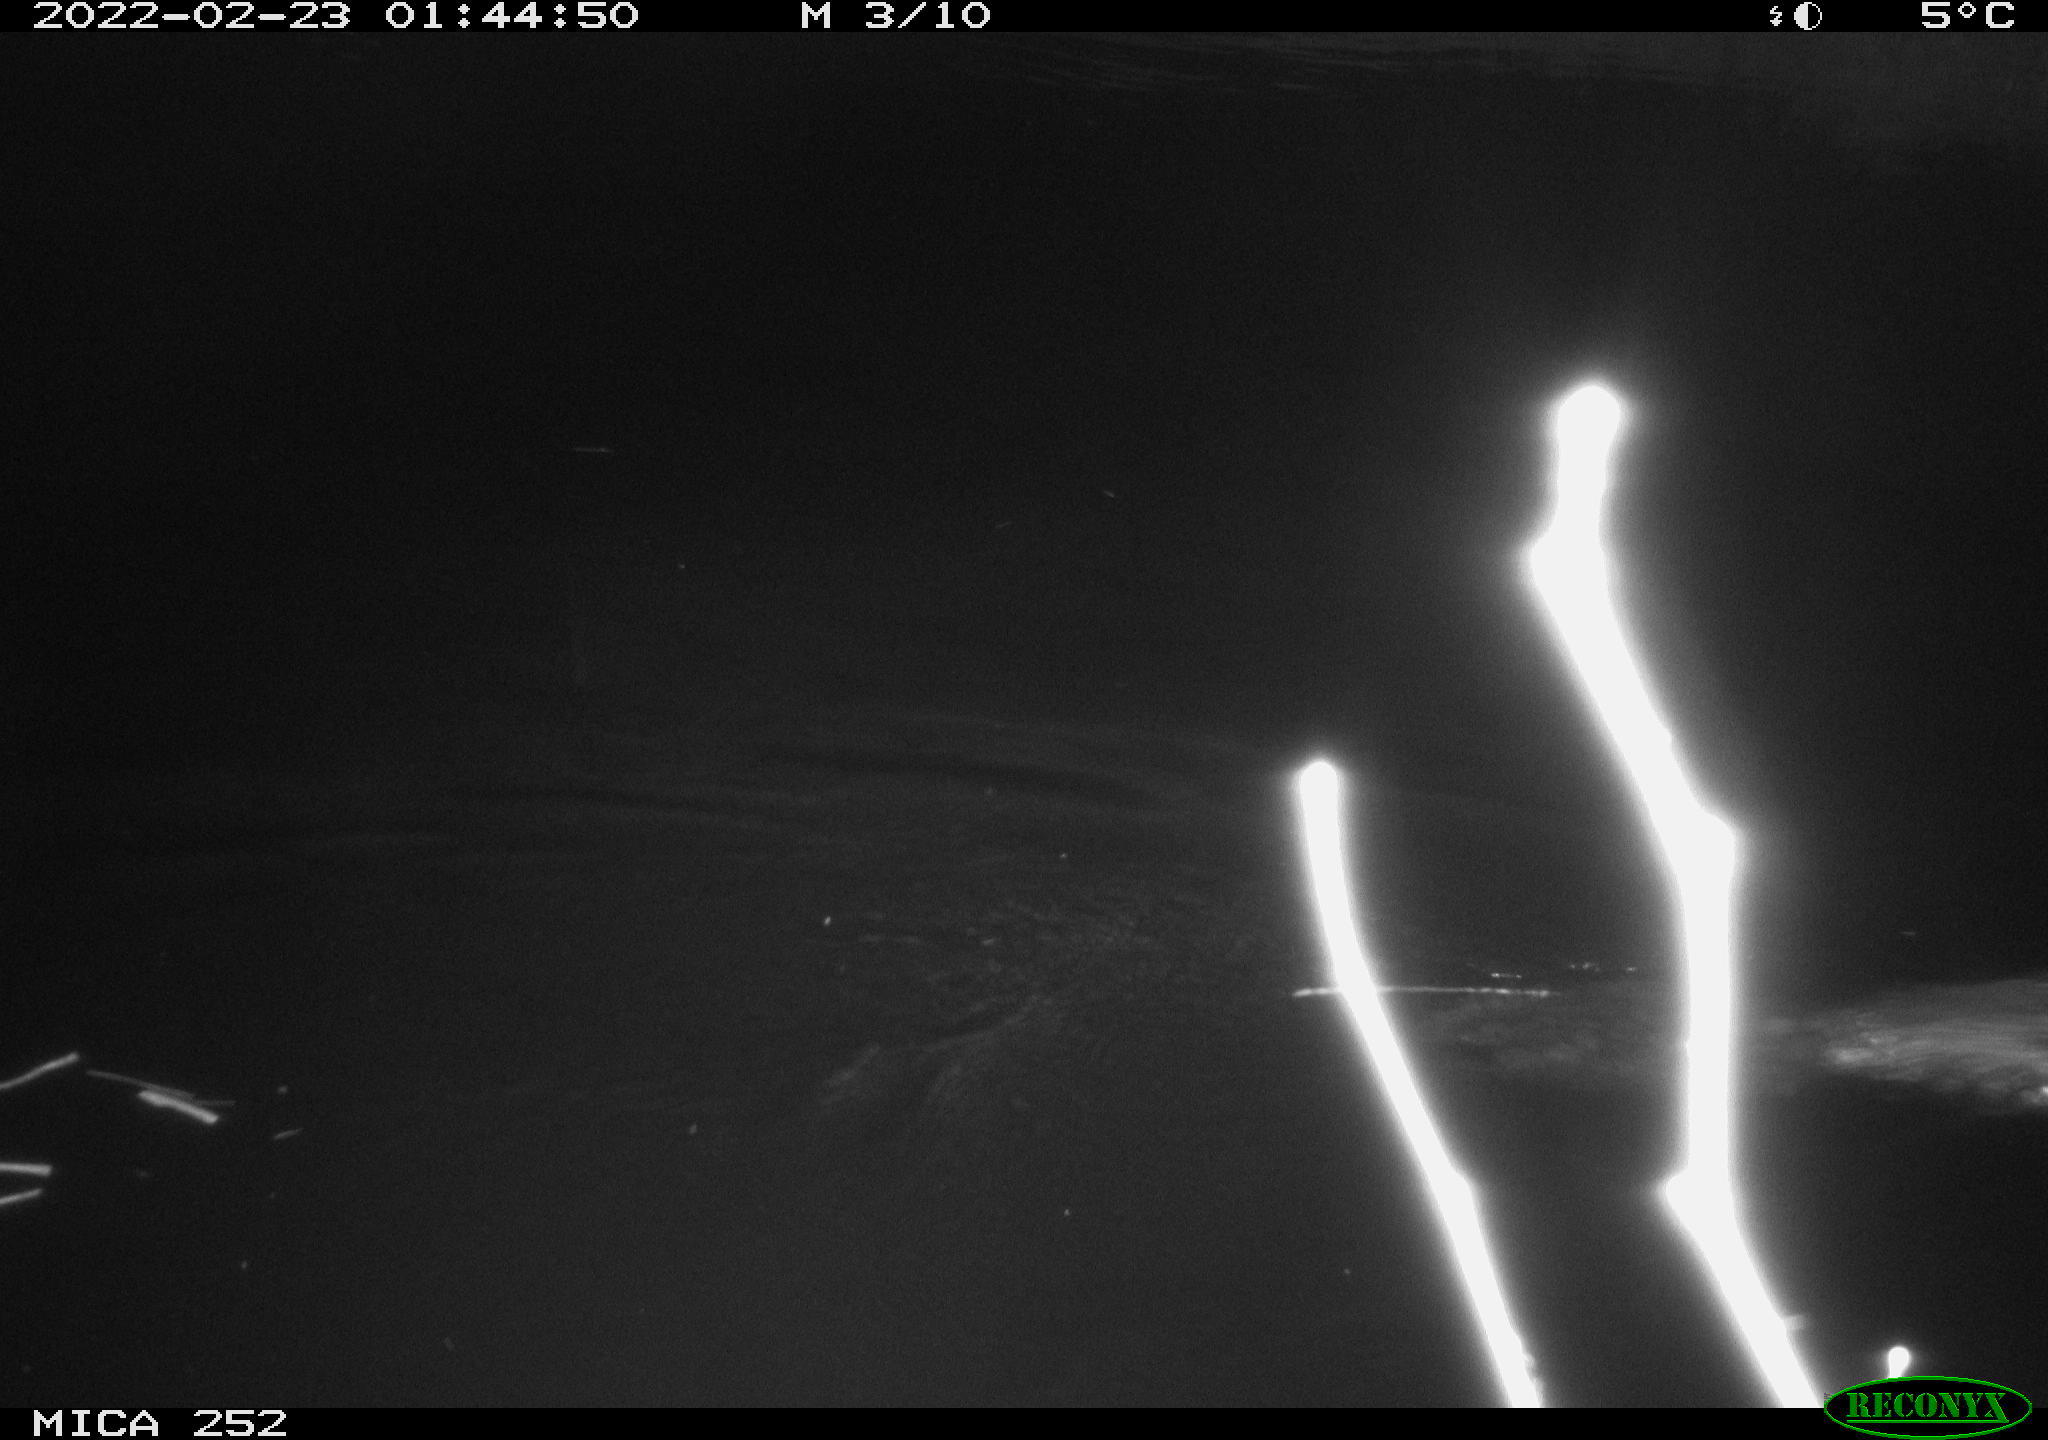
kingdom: Animalia
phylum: Chordata
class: Mammalia
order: Rodentia
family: Castoridae
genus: Castor
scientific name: Castor fiber
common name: Eurasian beaver
